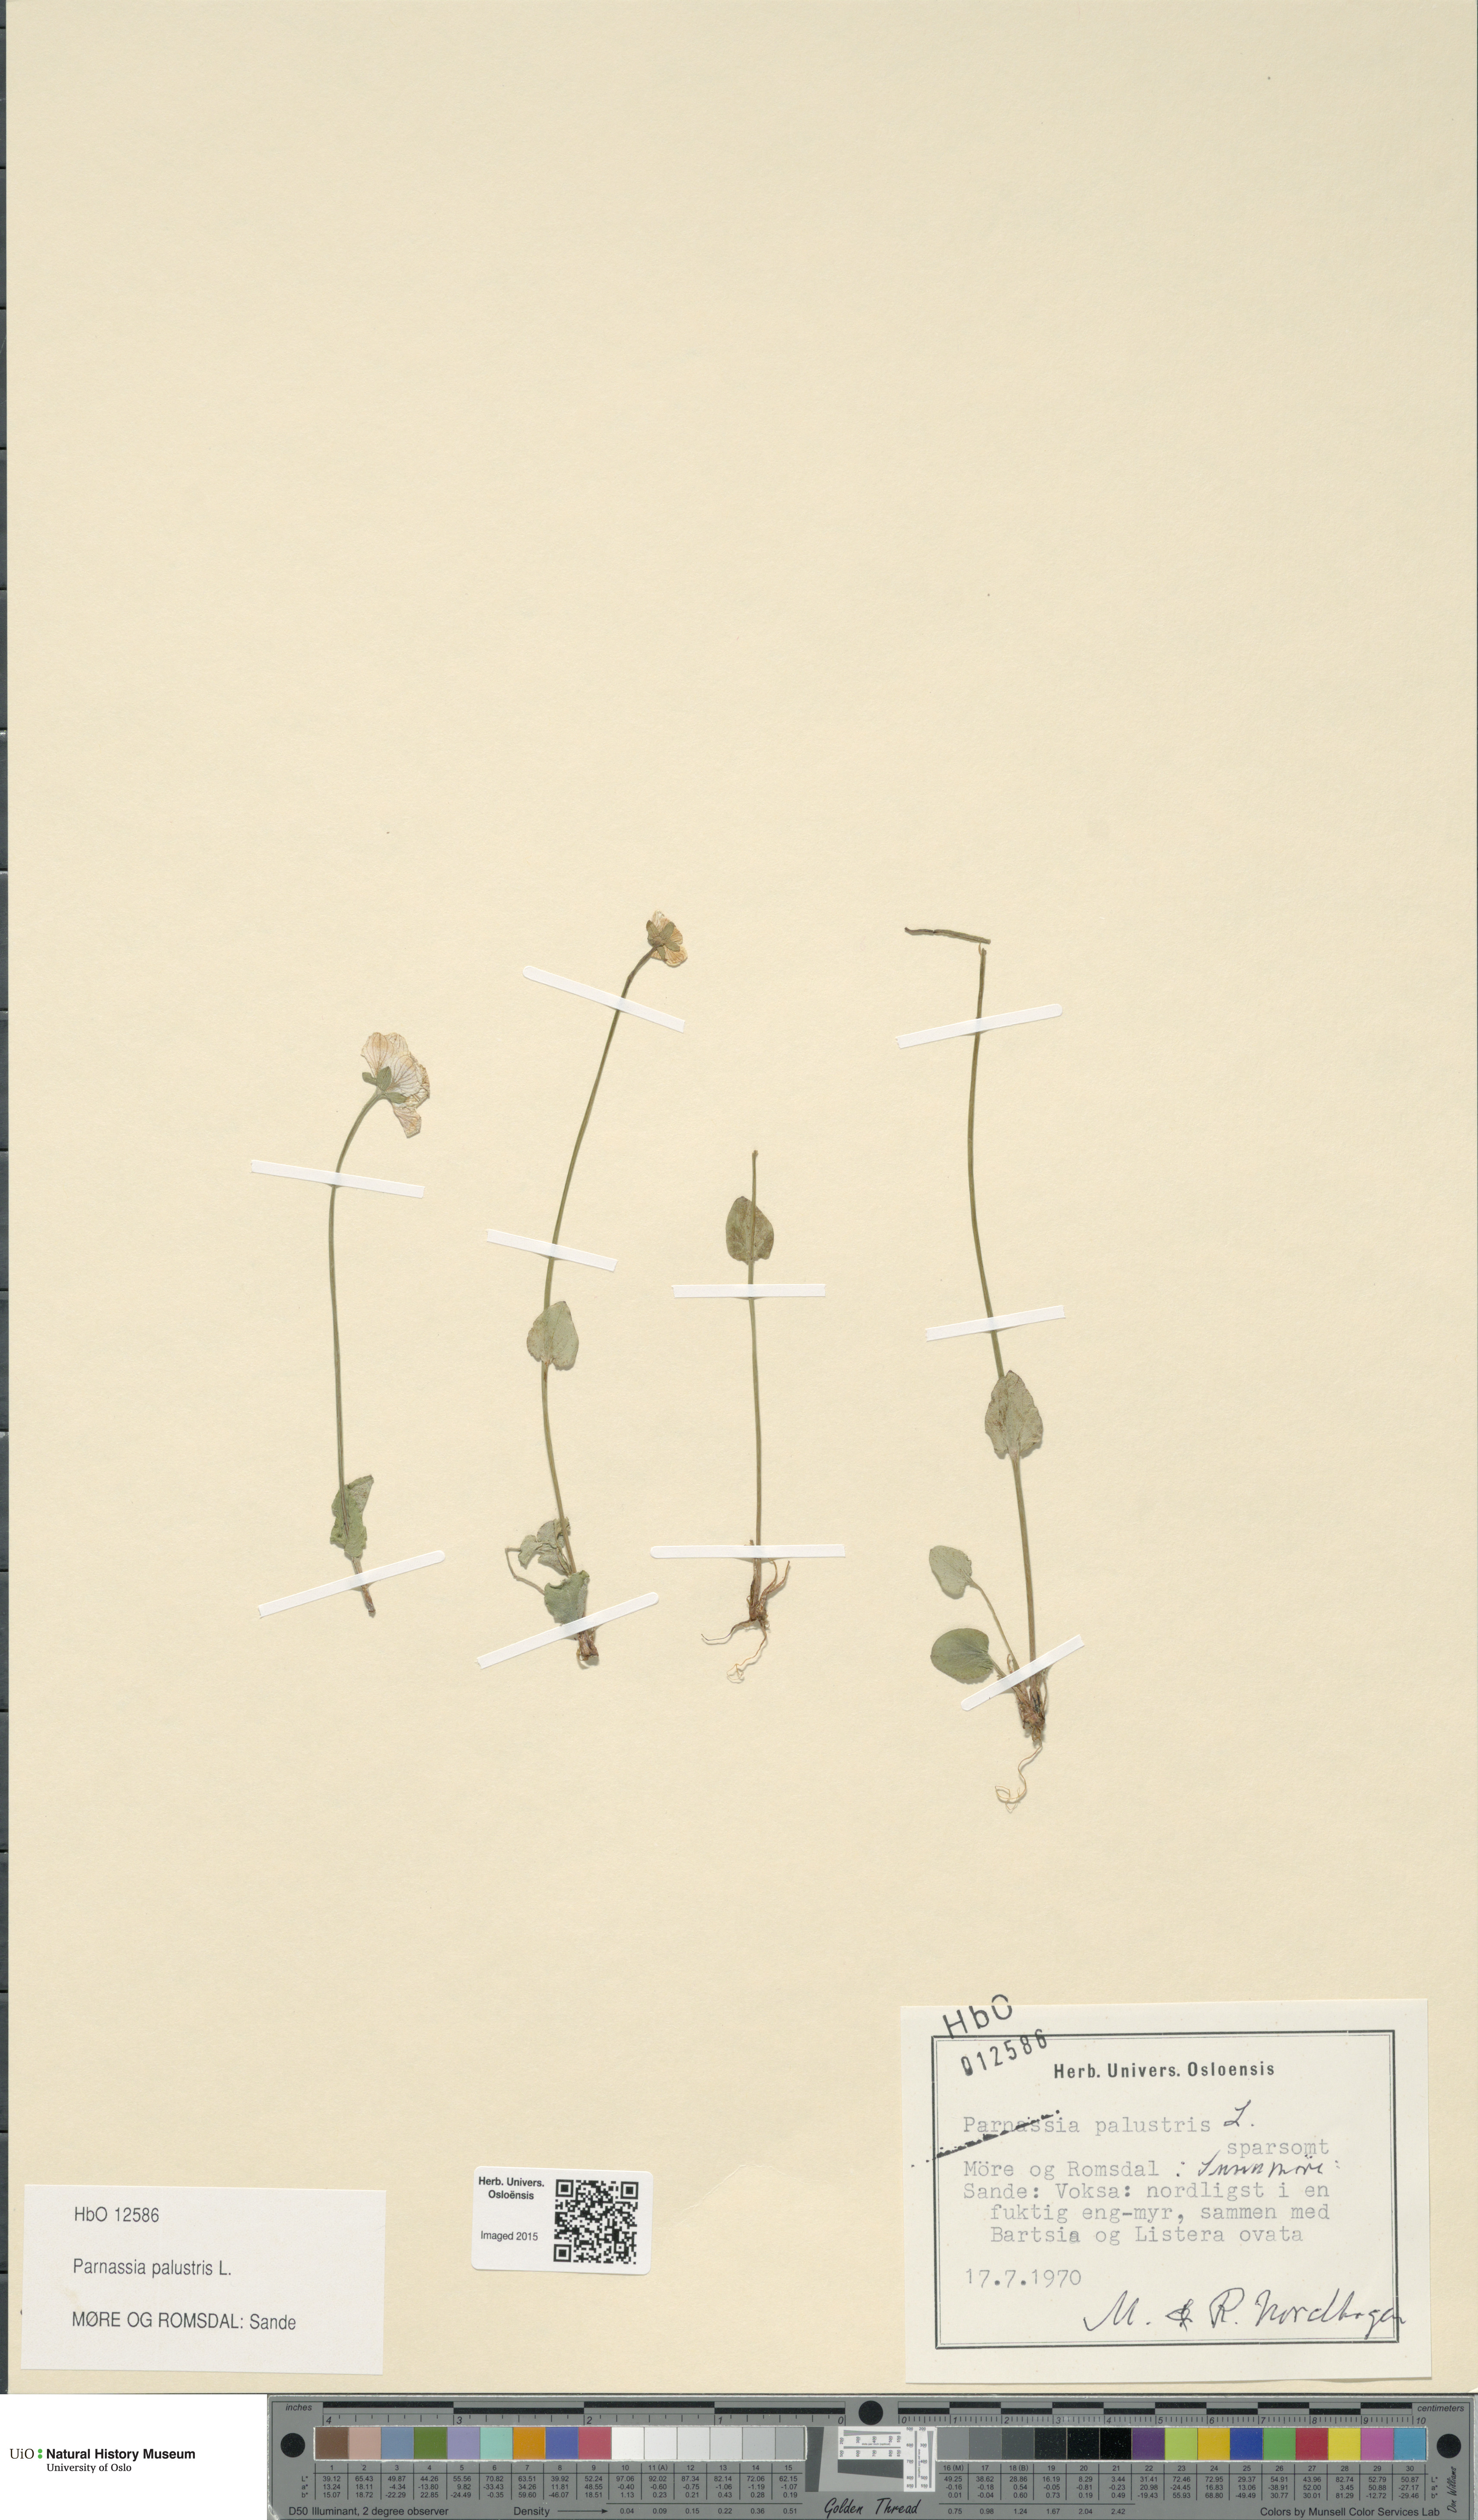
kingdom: Plantae
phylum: Tracheophyta
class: Magnoliopsida
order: Celastrales
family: Parnassiaceae
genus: Parnassia
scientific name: Parnassia palustris
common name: Grass-of-parnassus
